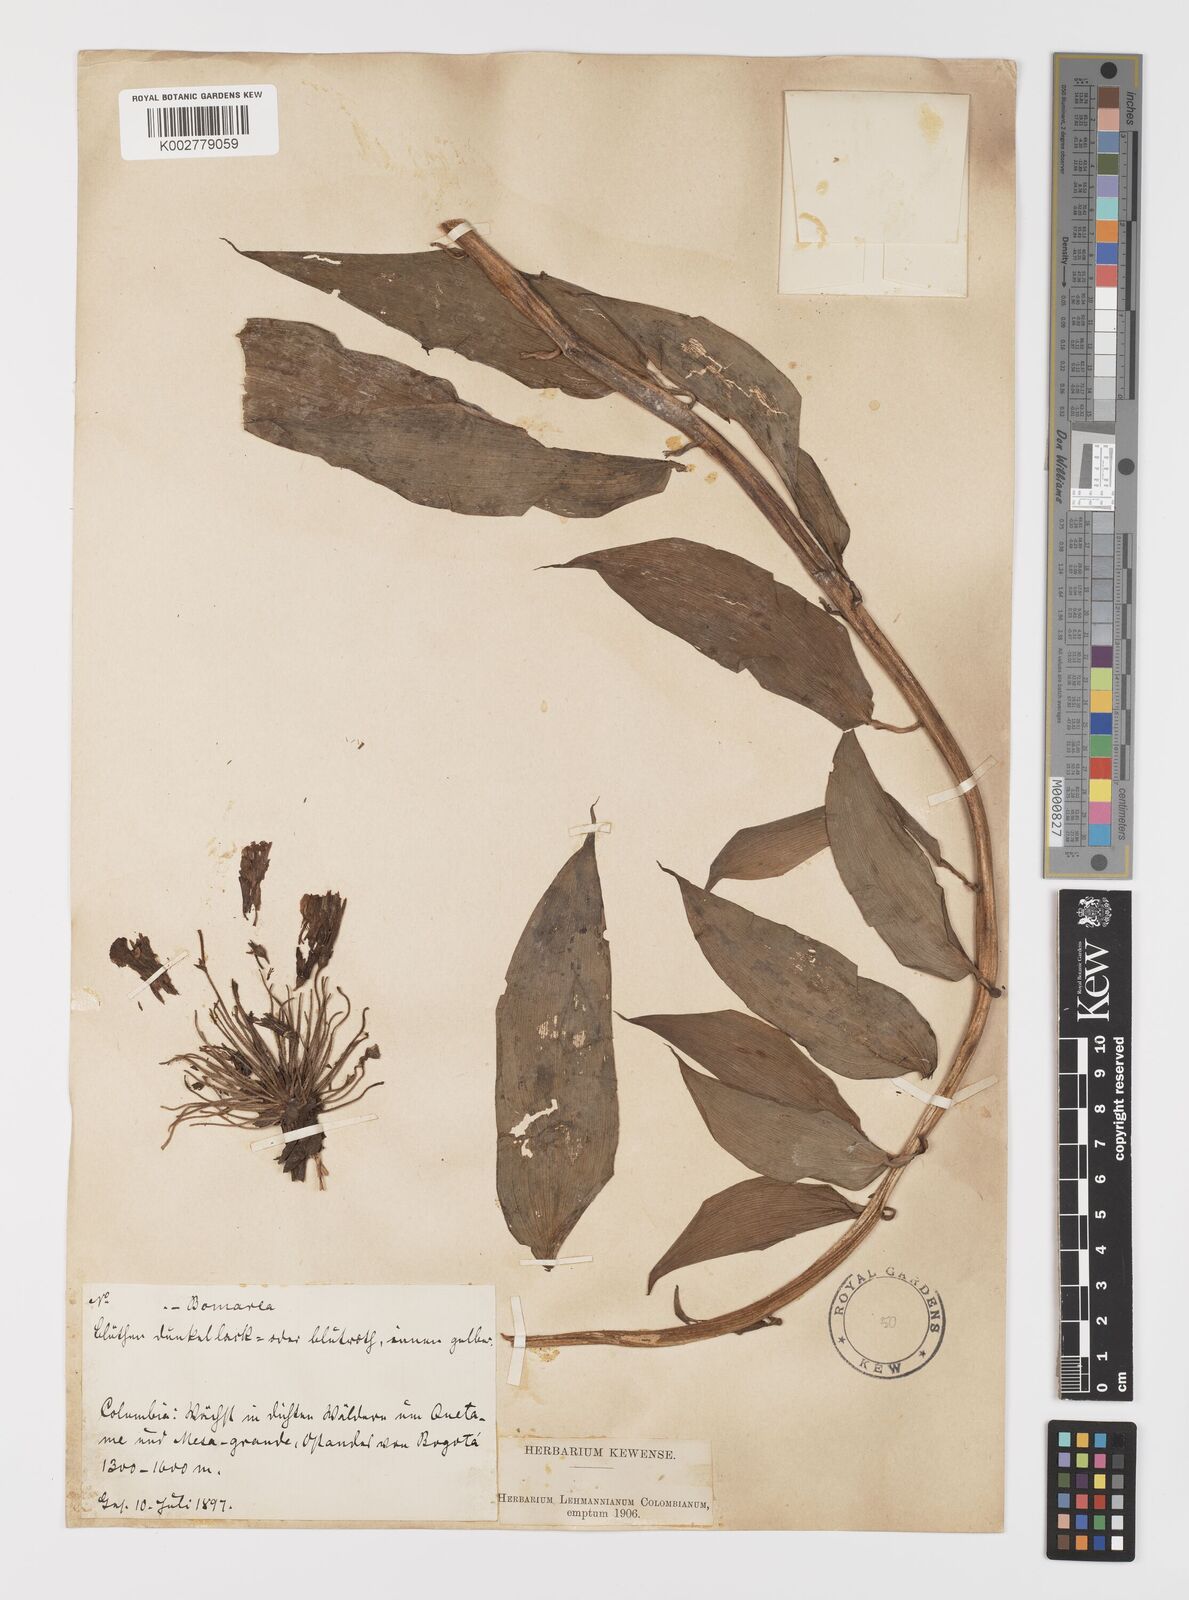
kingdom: Plantae
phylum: Tracheophyta
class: Liliopsida
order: Liliales
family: Alstroemeriaceae
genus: Bomarea
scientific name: Bomarea
